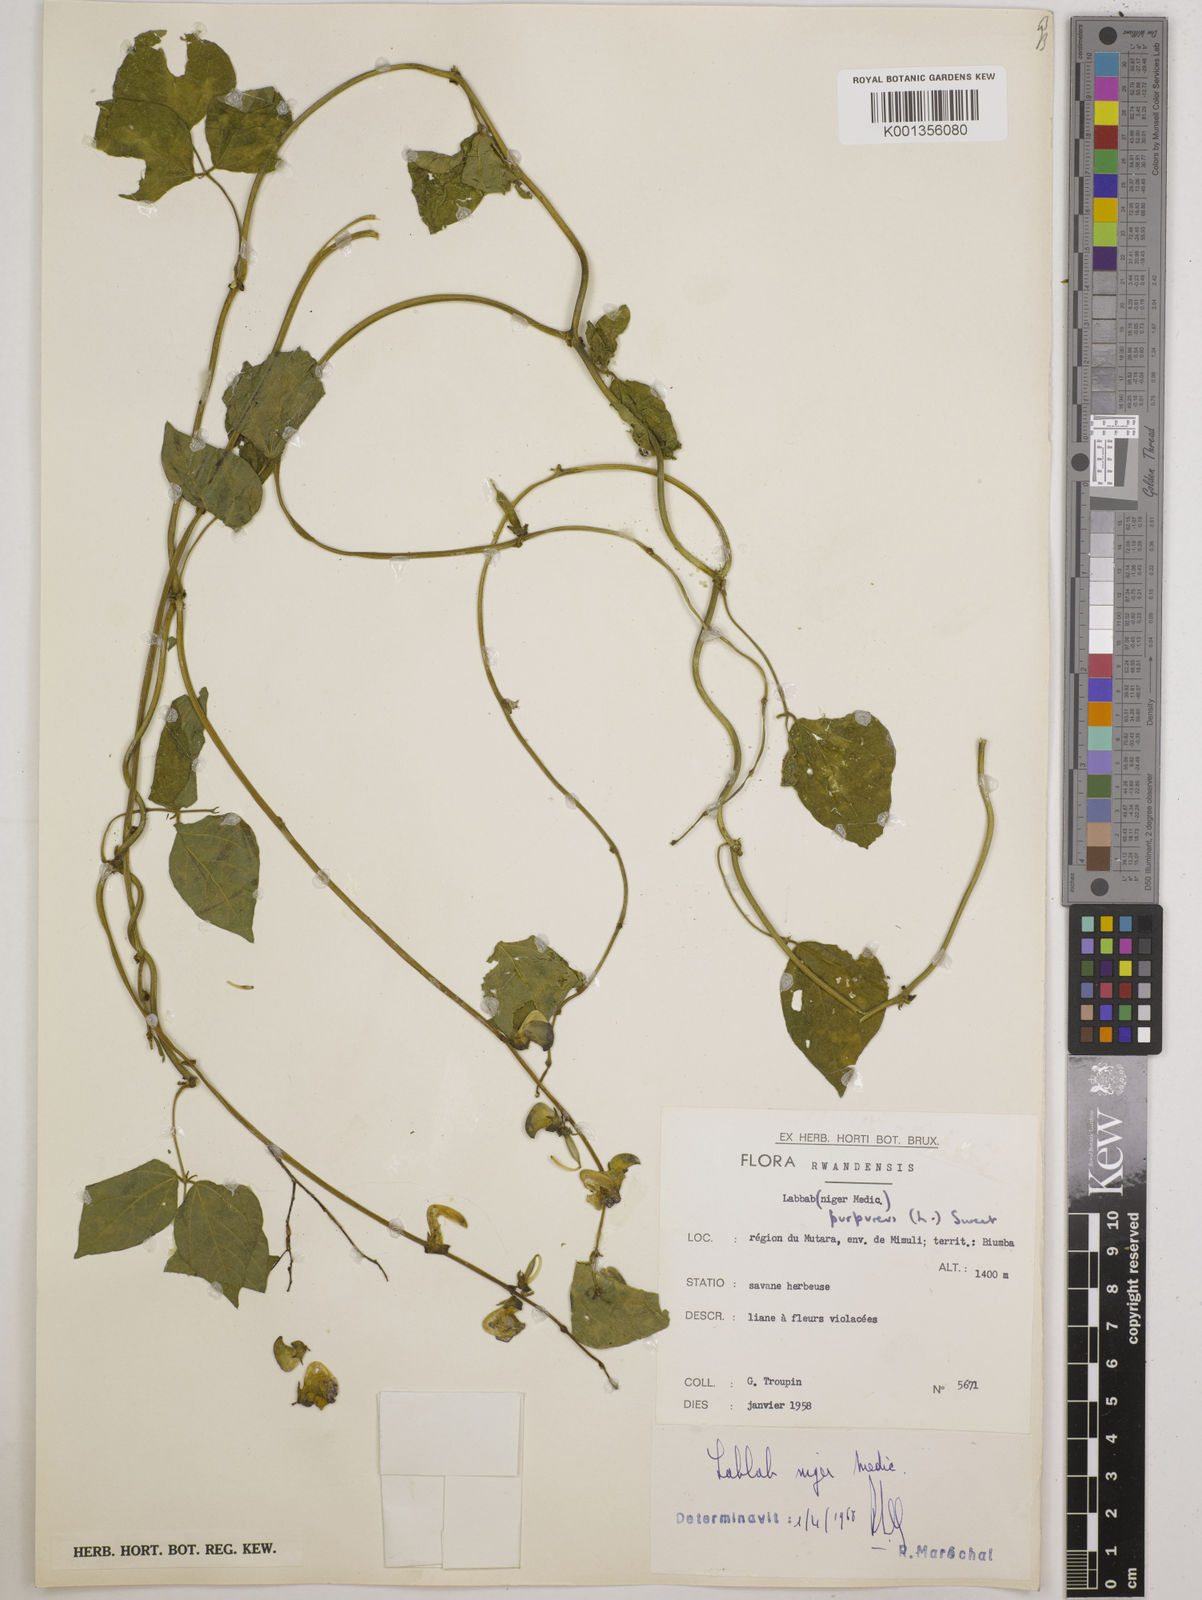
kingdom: Plantae
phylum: Tracheophyta
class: Magnoliopsida
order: Fabales
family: Fabaceae
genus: Lablab
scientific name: Lablab purpureus
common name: Lablab-bean
